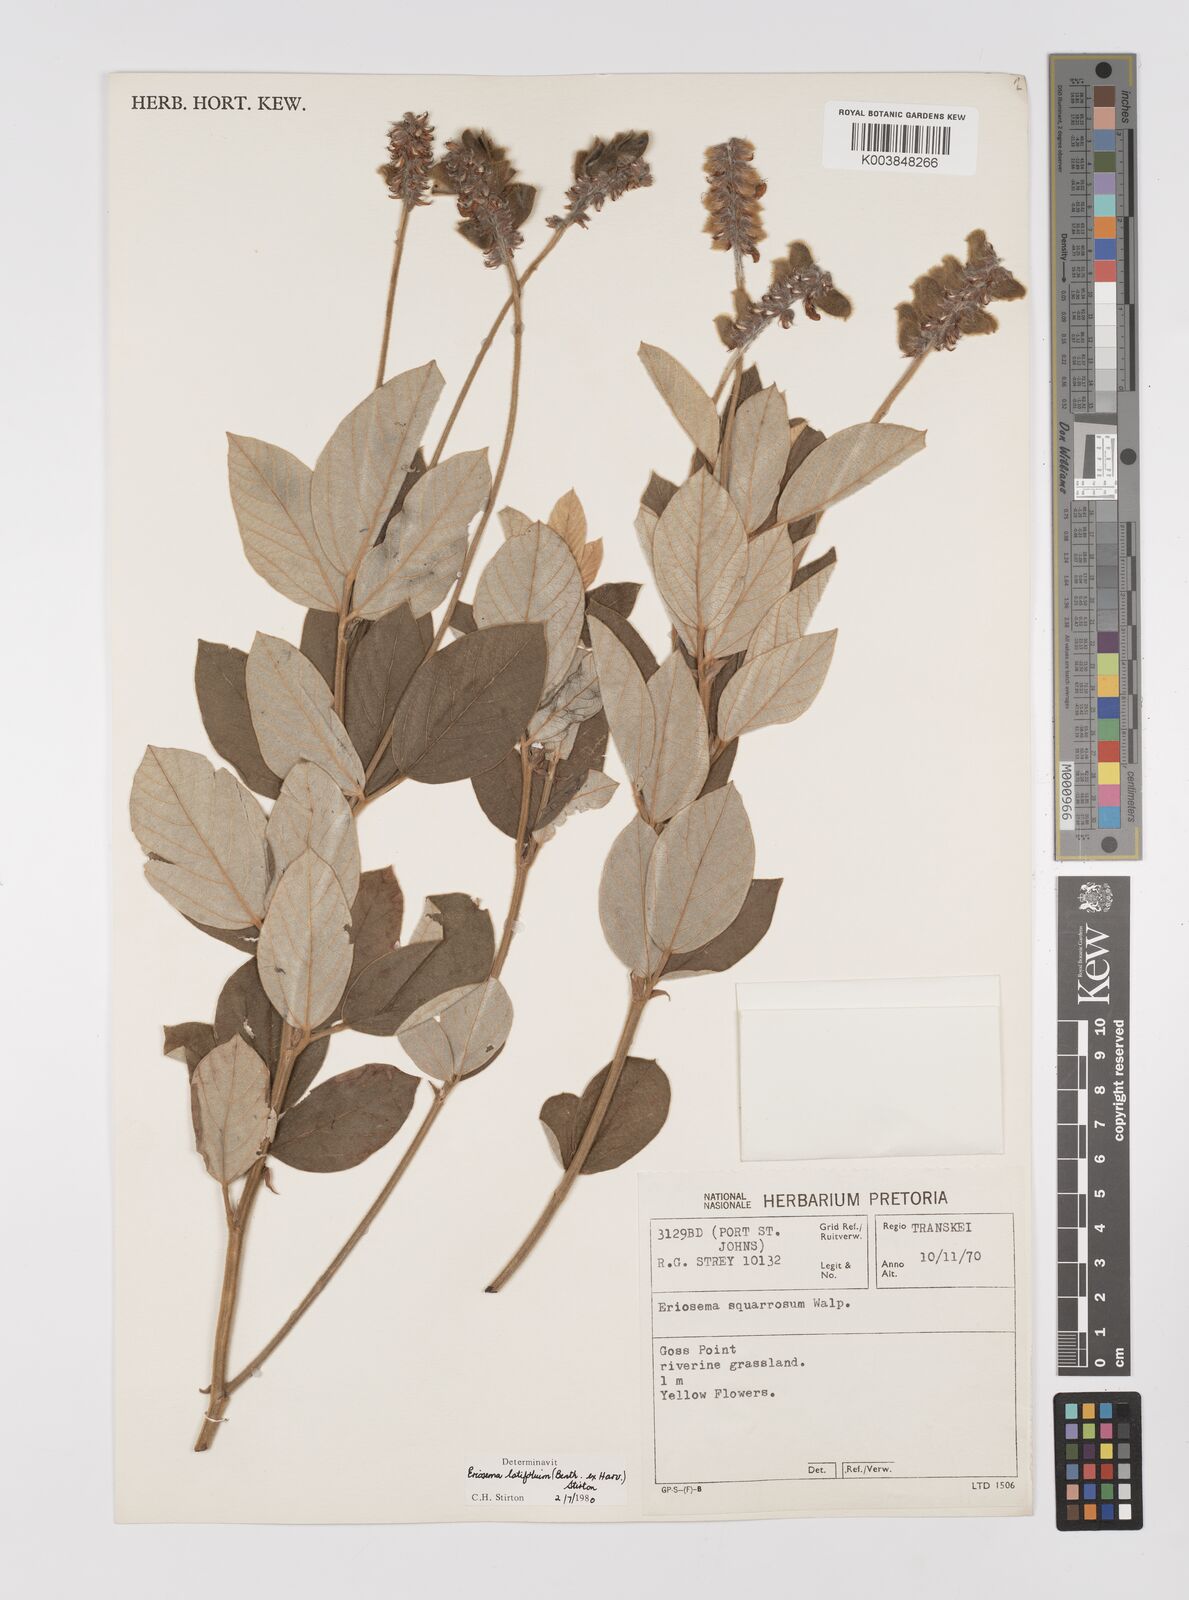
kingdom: Plantae
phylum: Tracheophyta
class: Magnoliopsida
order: Fabales
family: Fabaceae
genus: Eriosema
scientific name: Eriosema latifolium
